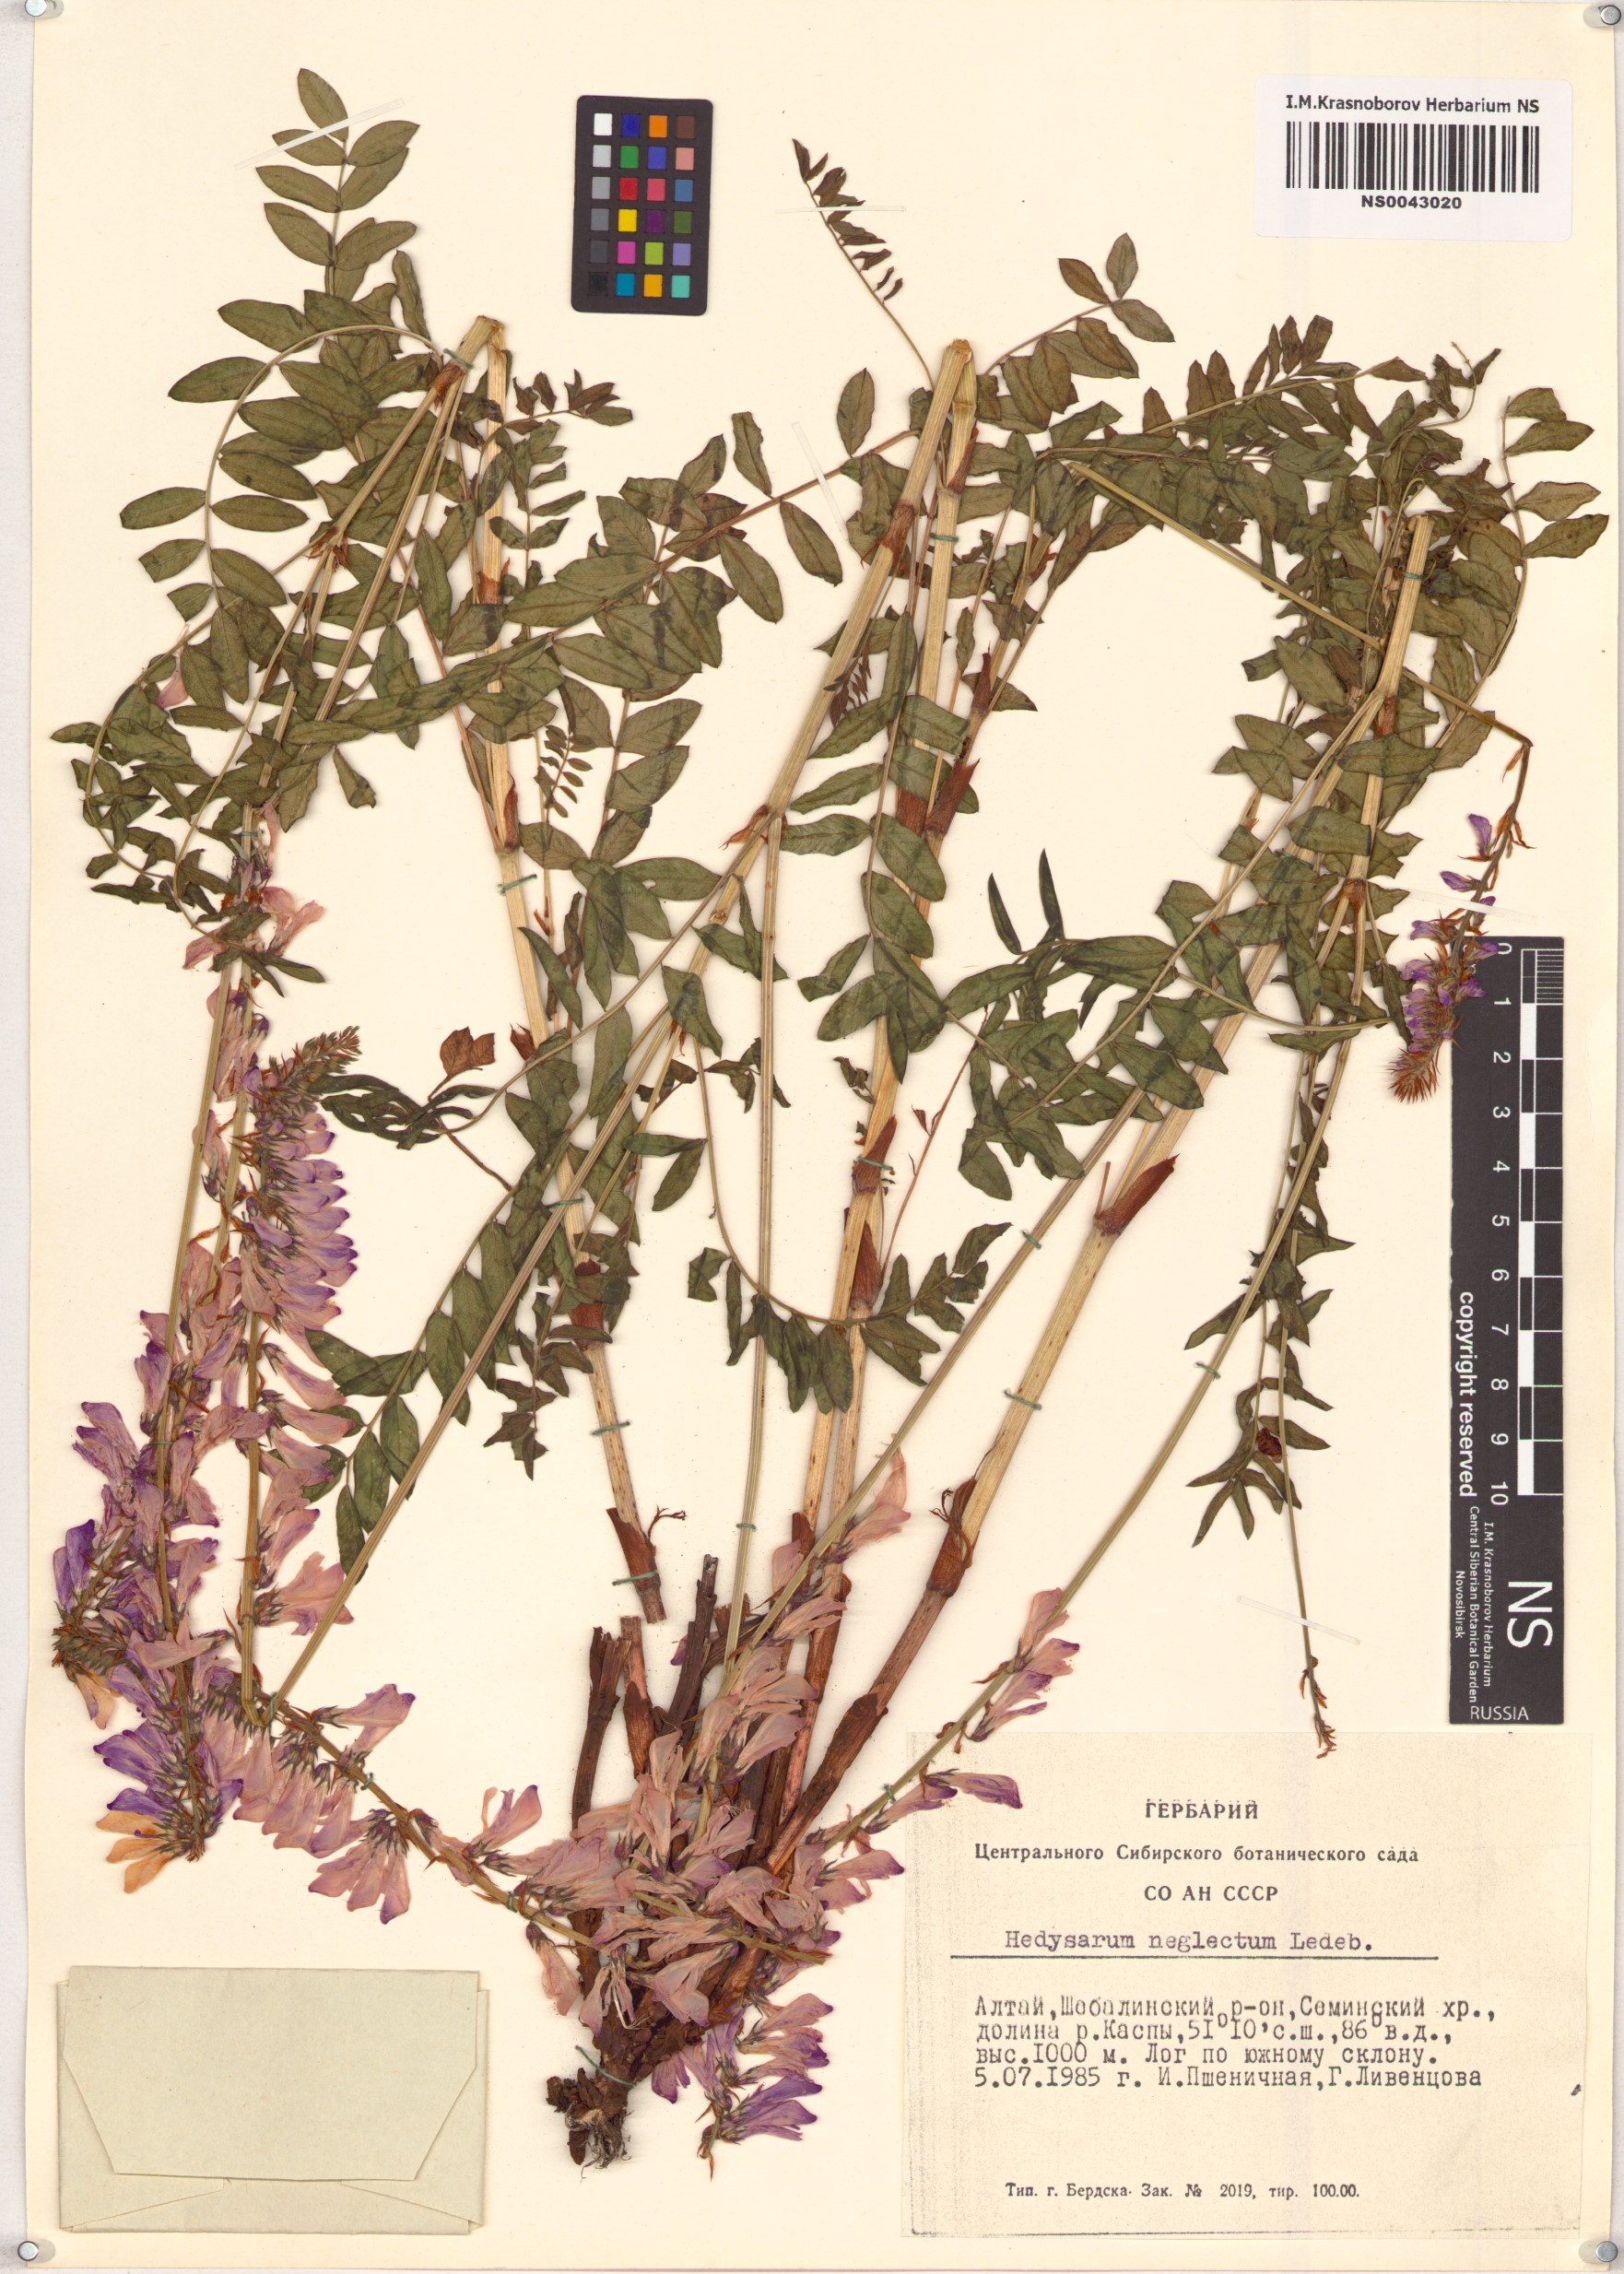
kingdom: Plantae
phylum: Tracheophyta
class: Magnoliopsida
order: Fabales
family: Fabaceae
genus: Hedysarum
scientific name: Hedysarum neglectum
